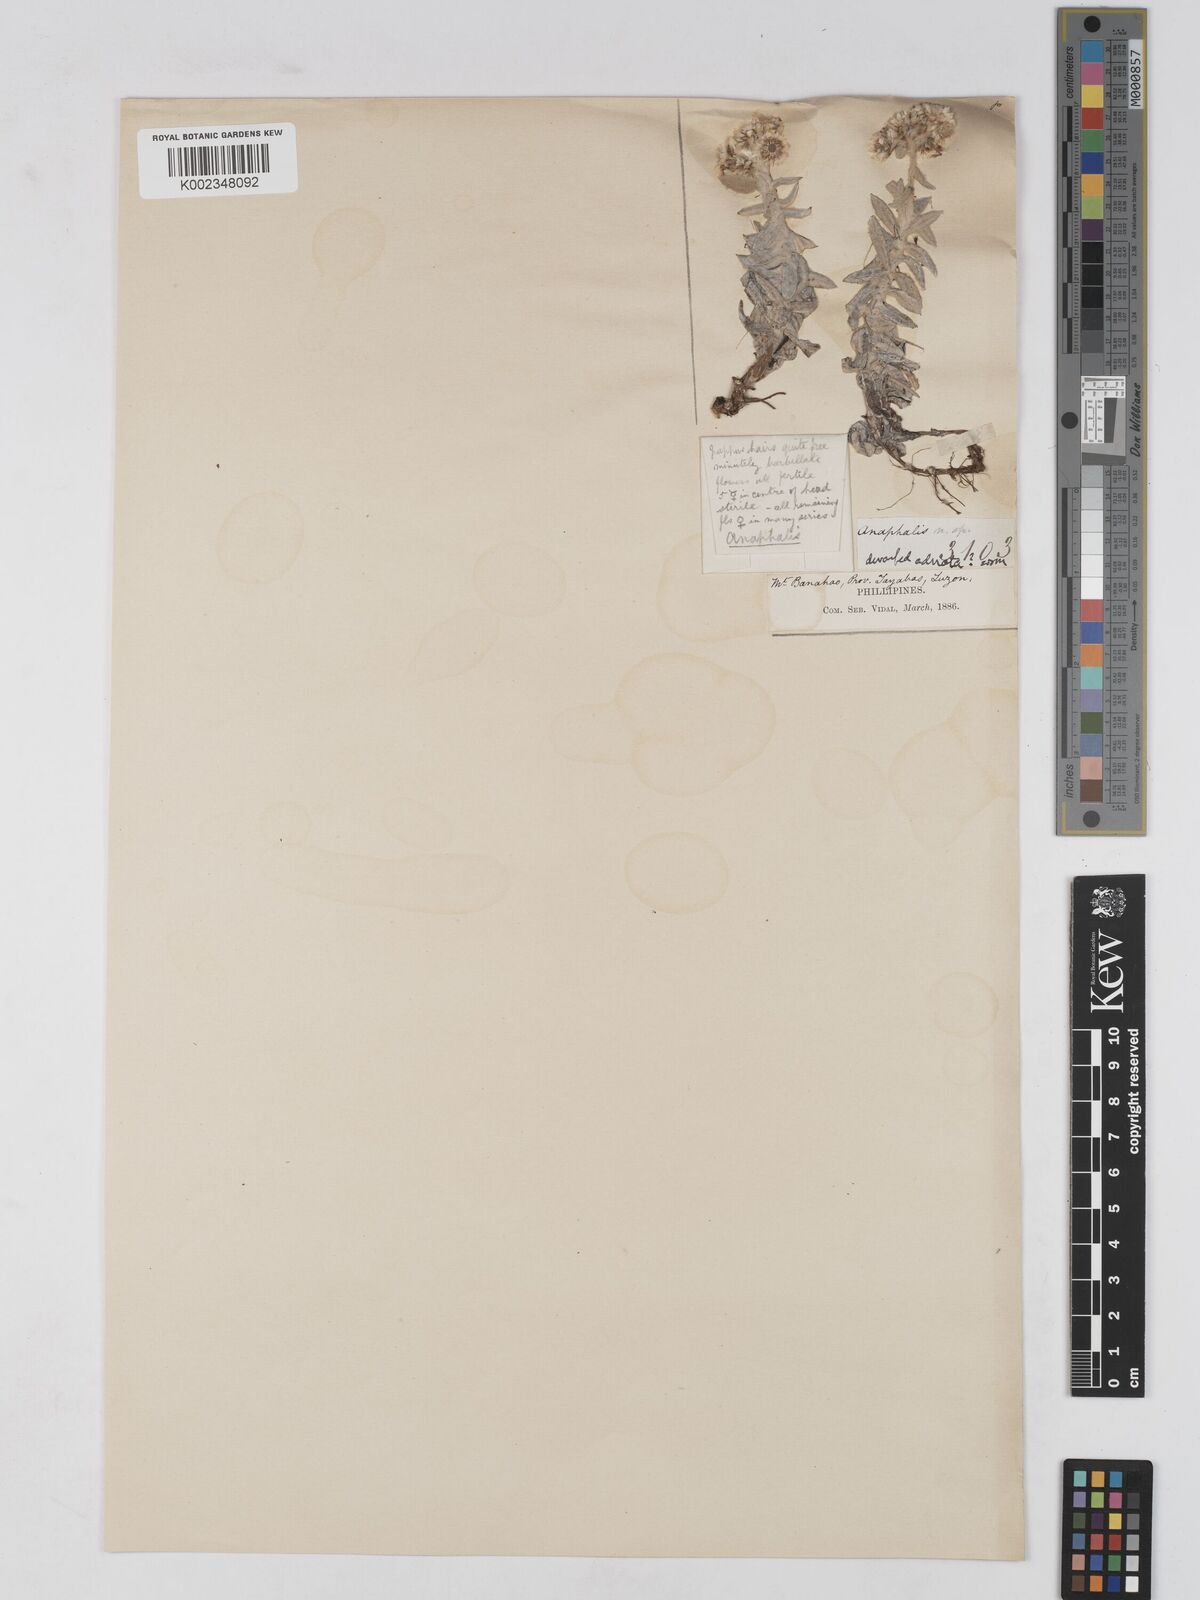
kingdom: Plantae
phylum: Tracheophyta
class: Magnoliopsida
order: Asterales
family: Asteraceae
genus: Anaphalis
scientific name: Anaphalis
